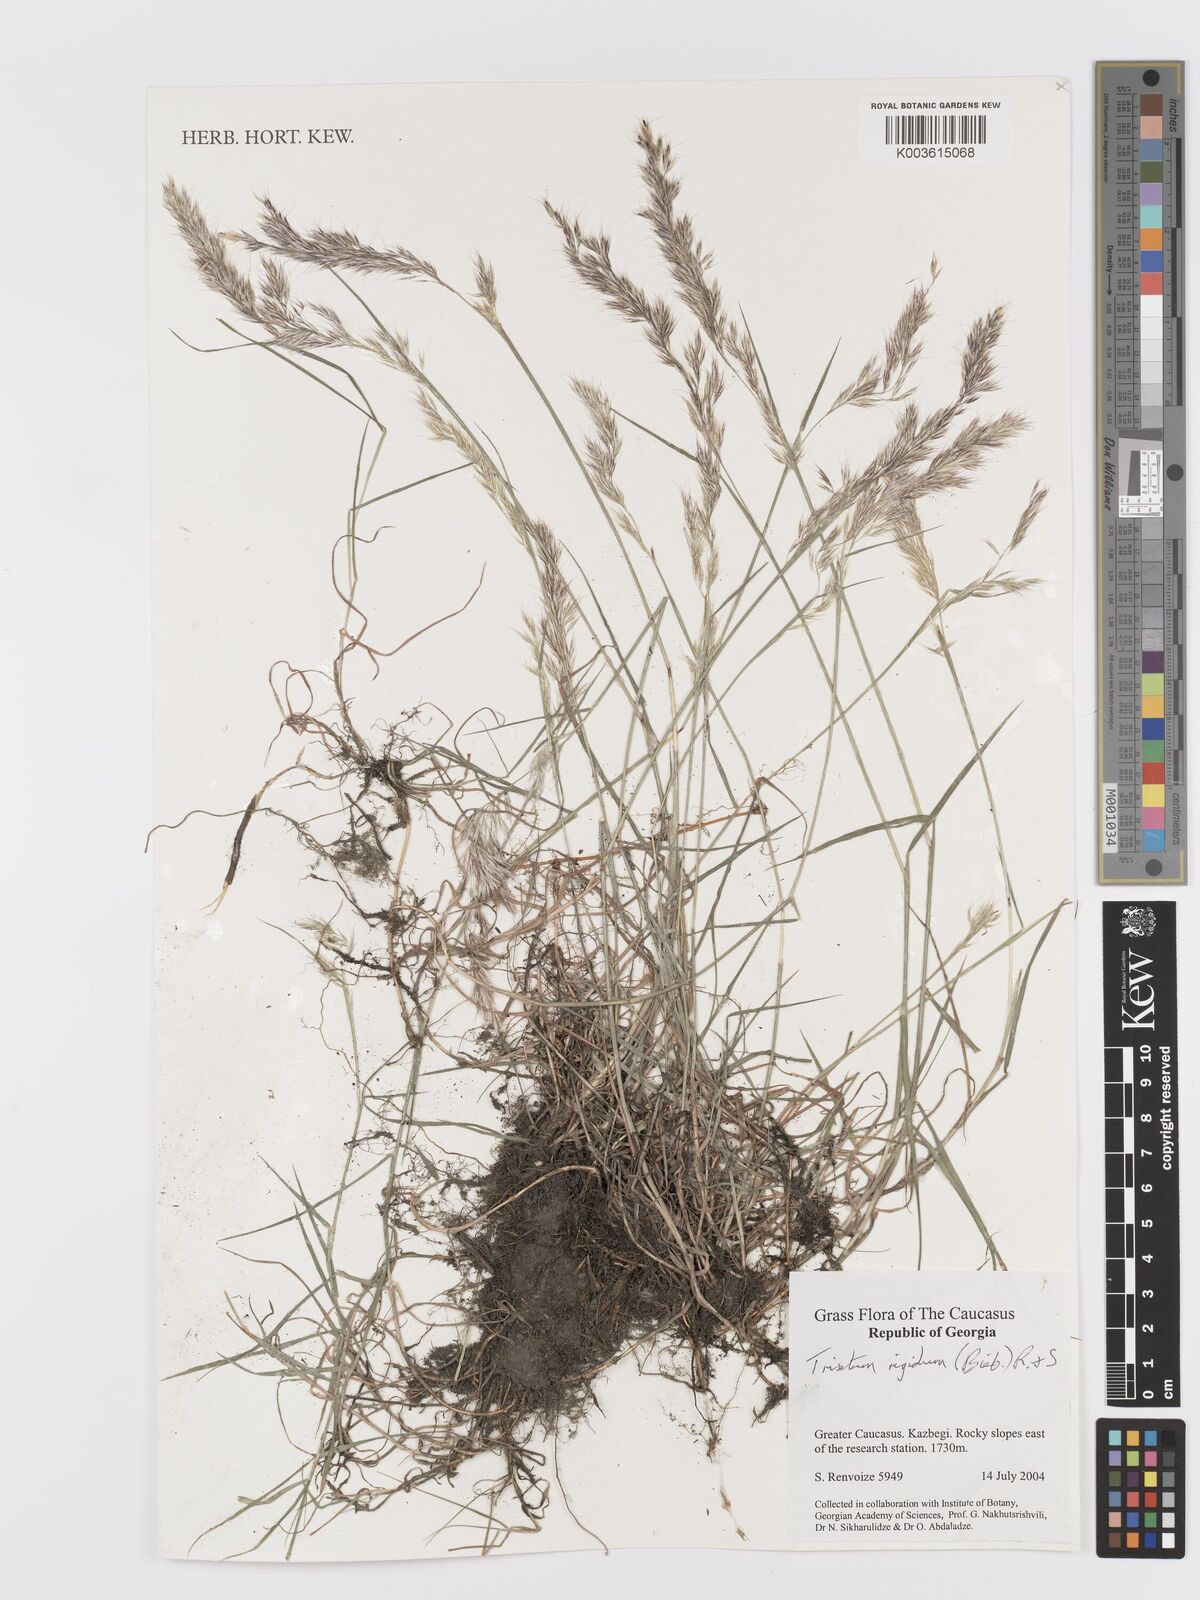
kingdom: Plantae
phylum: Tracheophyta
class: Liliopsida
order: Poales
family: Poaceae
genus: Trisetum
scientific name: Trisetum rigidum
